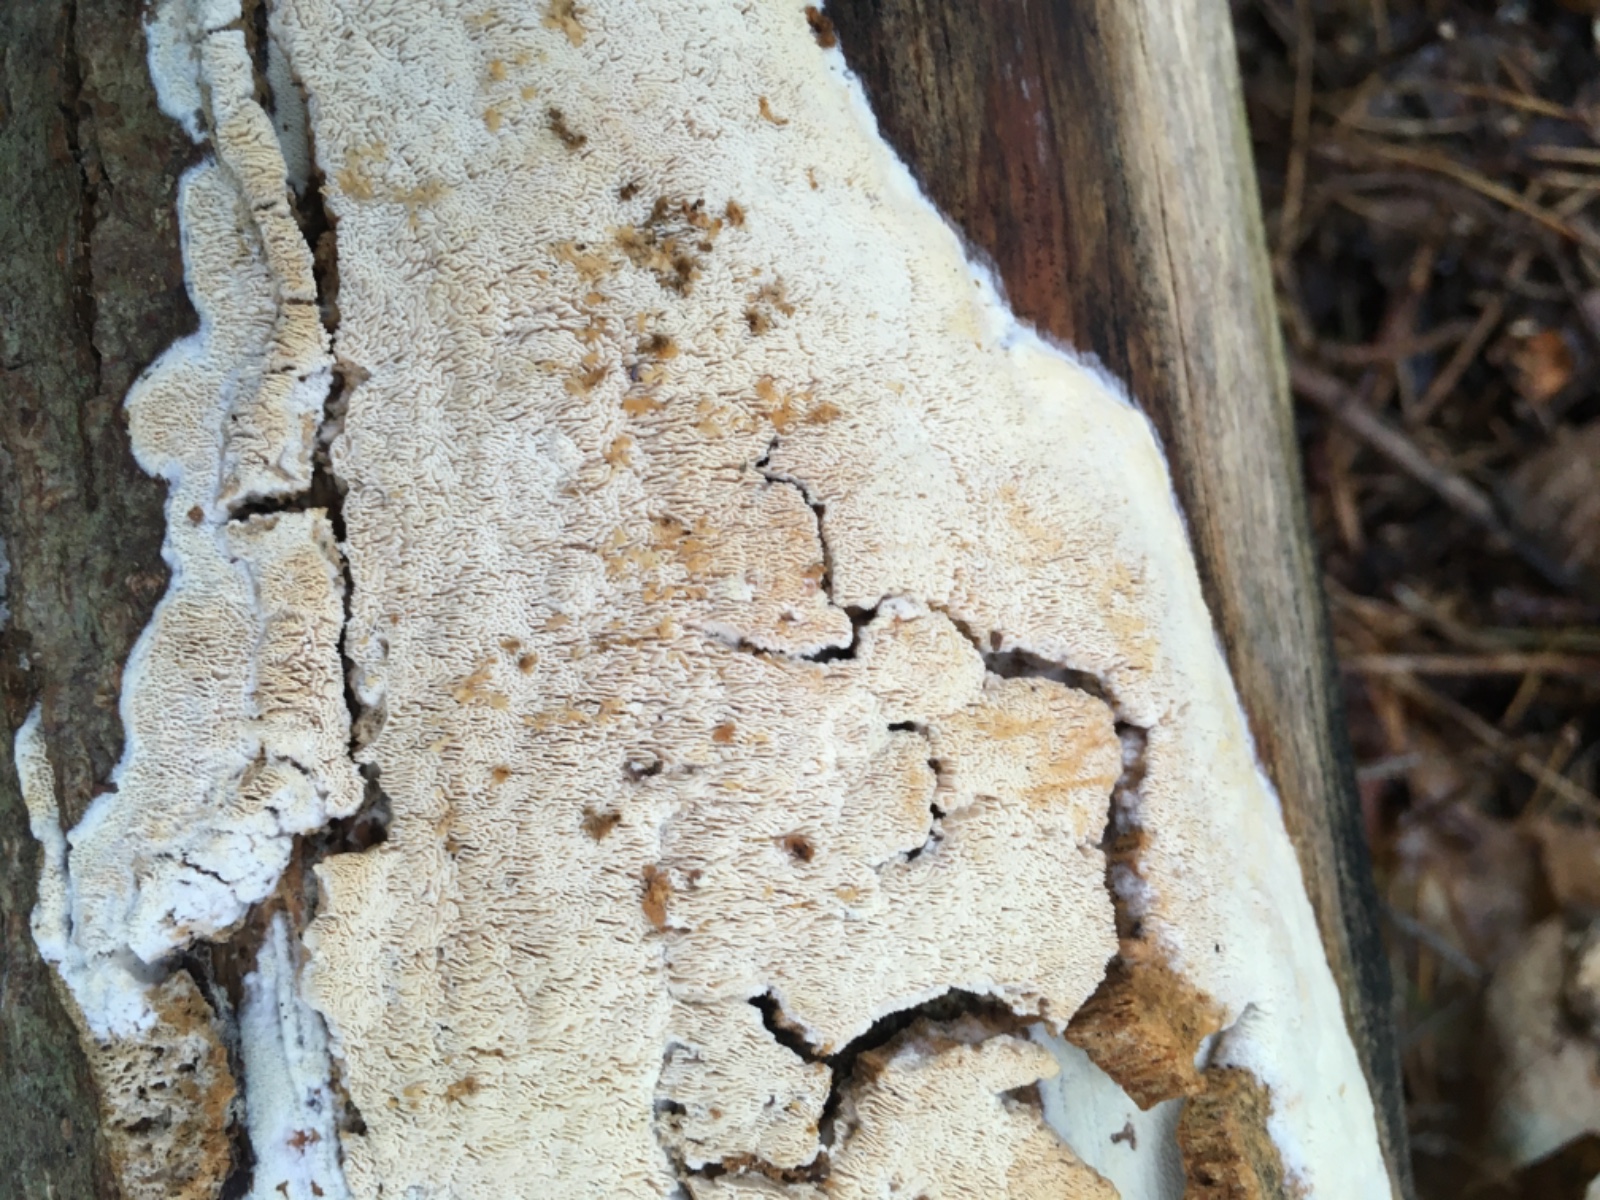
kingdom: Fungi
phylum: Basidiomycota
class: Agaricomycetes
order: Hymenochaetales
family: Schizoporaceae
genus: Xylodon
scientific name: Xylodon subtropicus
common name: labyrint-tandsvamp
